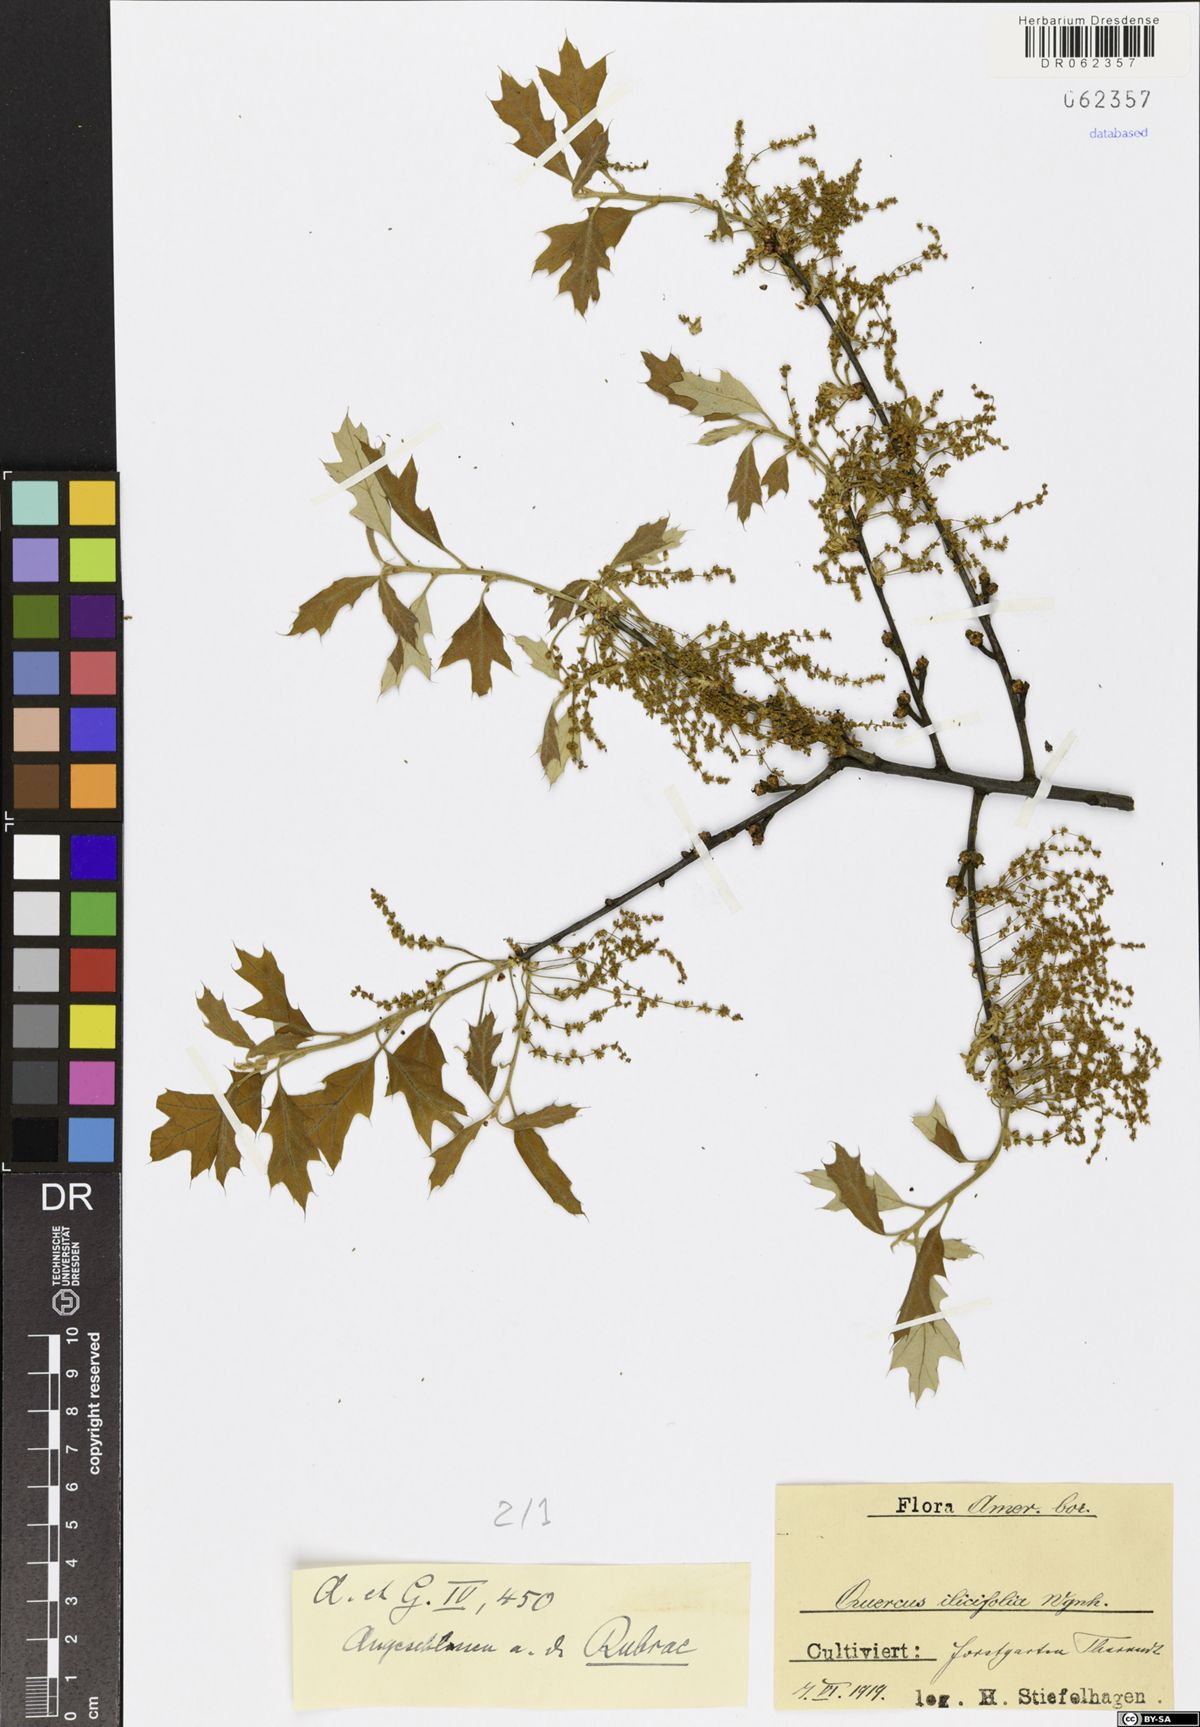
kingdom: Plantae
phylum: Tracheophyta
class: Magnoliopsida
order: Fagales
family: Fagaceae
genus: Quercus
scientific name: Quercus ilicifolia
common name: Bear oak
